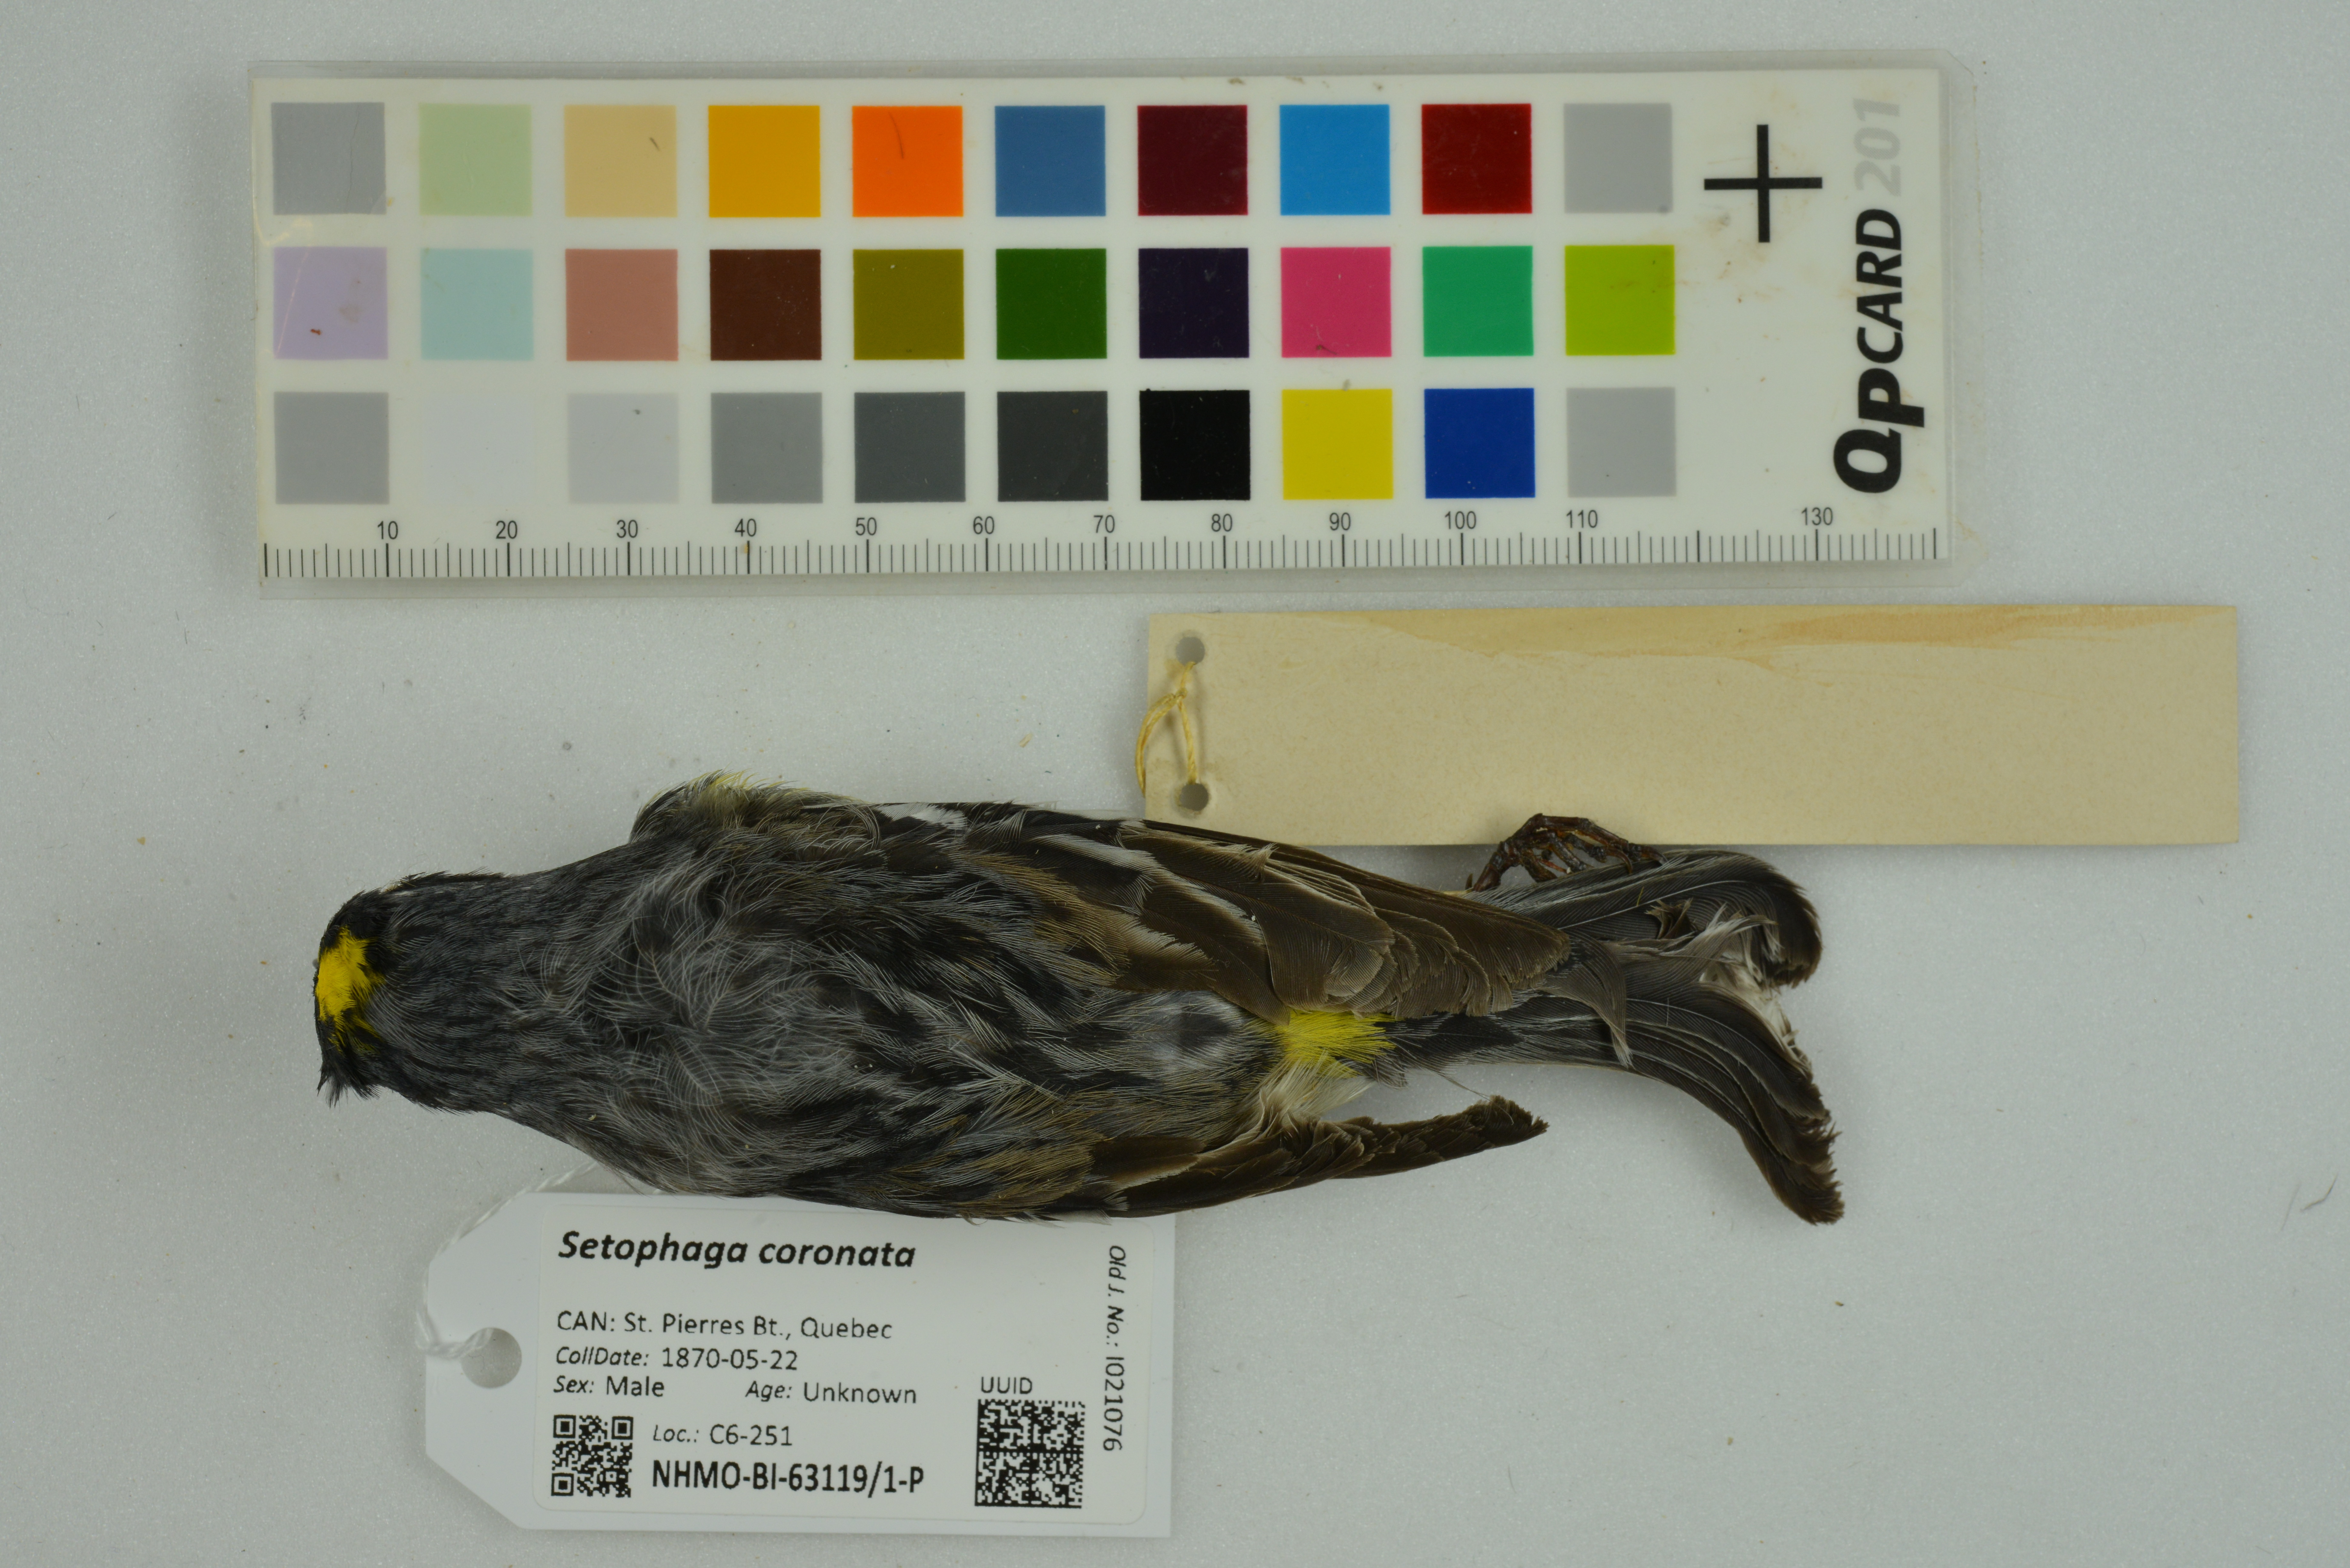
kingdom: Animalia
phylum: Chordata
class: Aves
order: Passeriformes
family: Parulidae
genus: Setophaga
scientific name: Setophaga coronata
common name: Myrtle warbler
